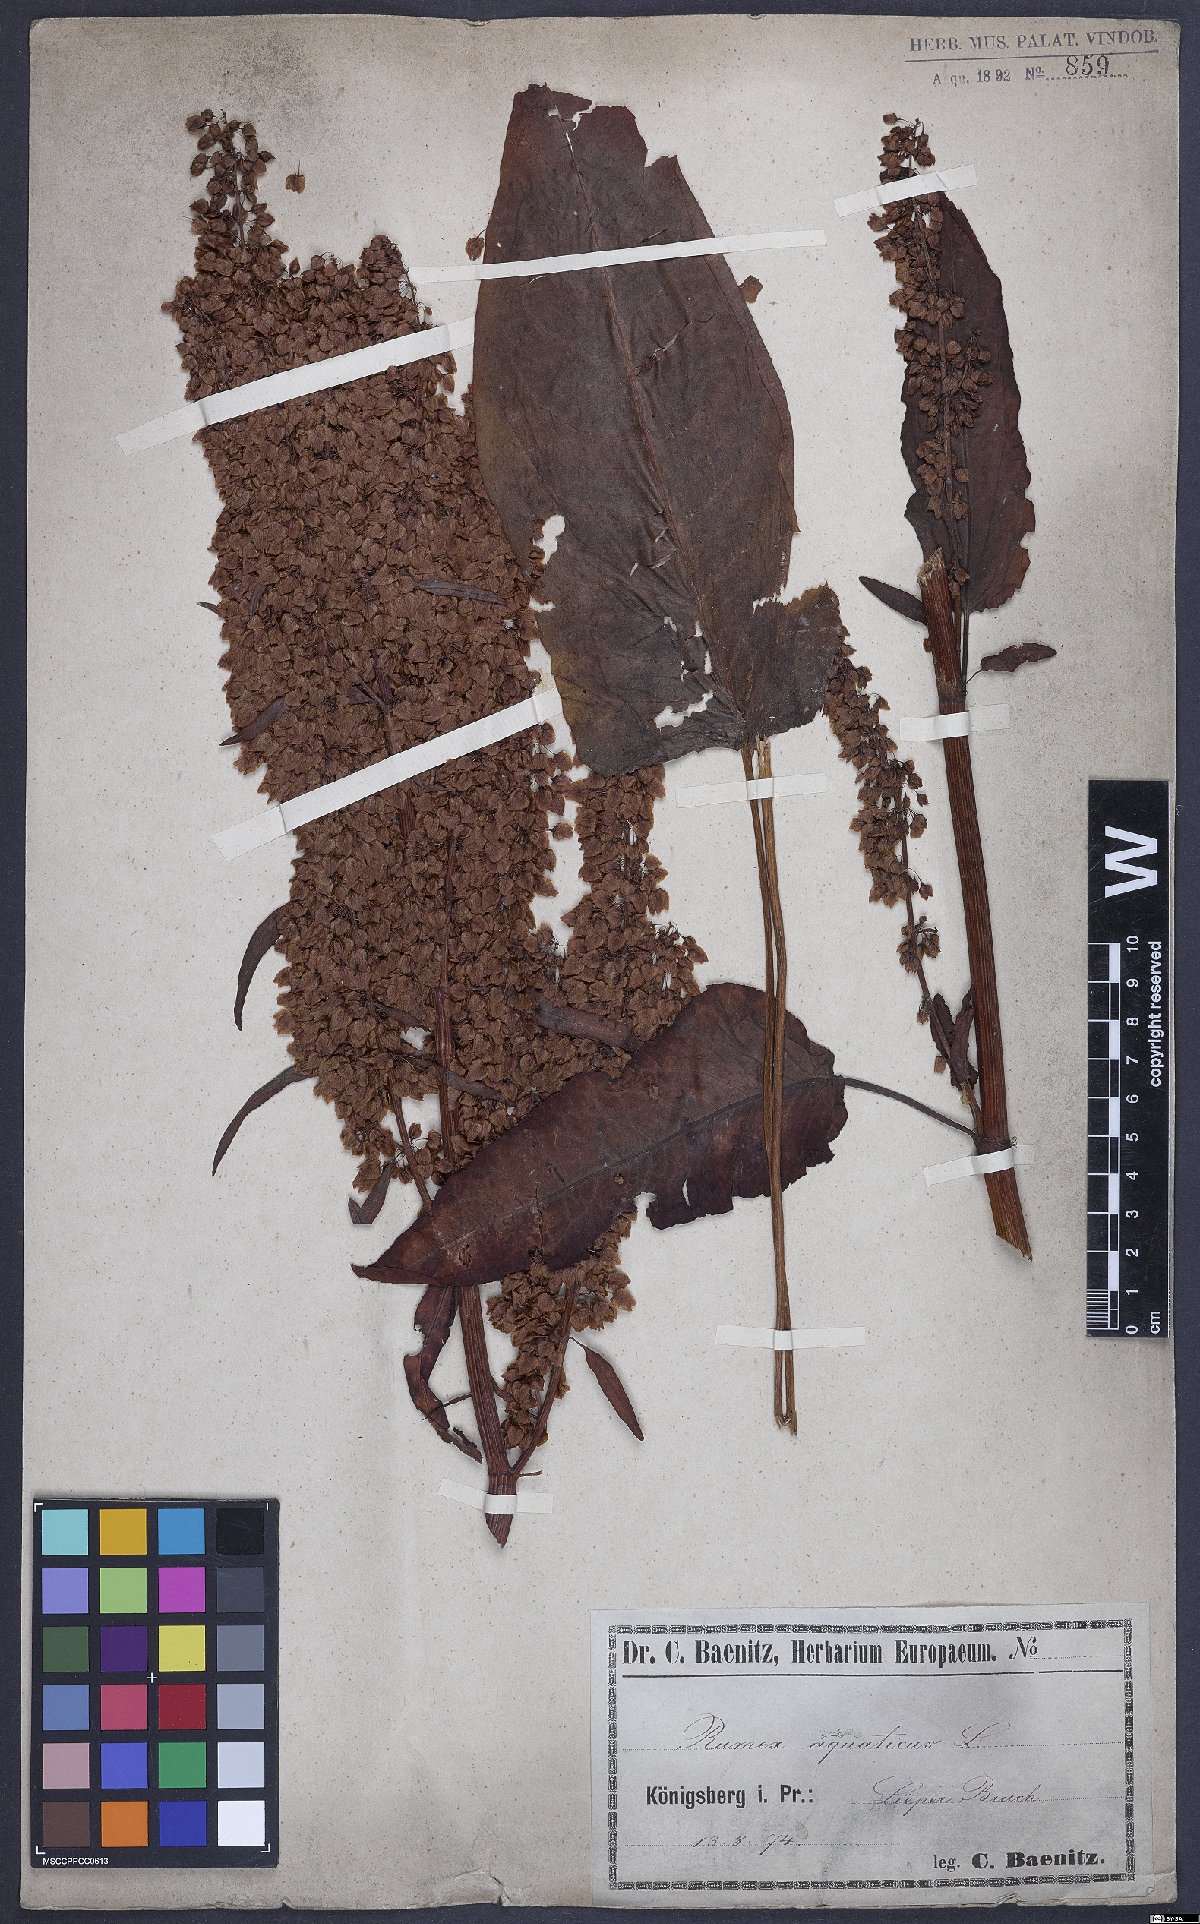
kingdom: Plantae
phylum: Tracheophyta
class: Magnoliopsida
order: Caryophyllales
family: Polygonaceae
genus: Rumex
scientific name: Rumex aquaticus
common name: Scottish dock
